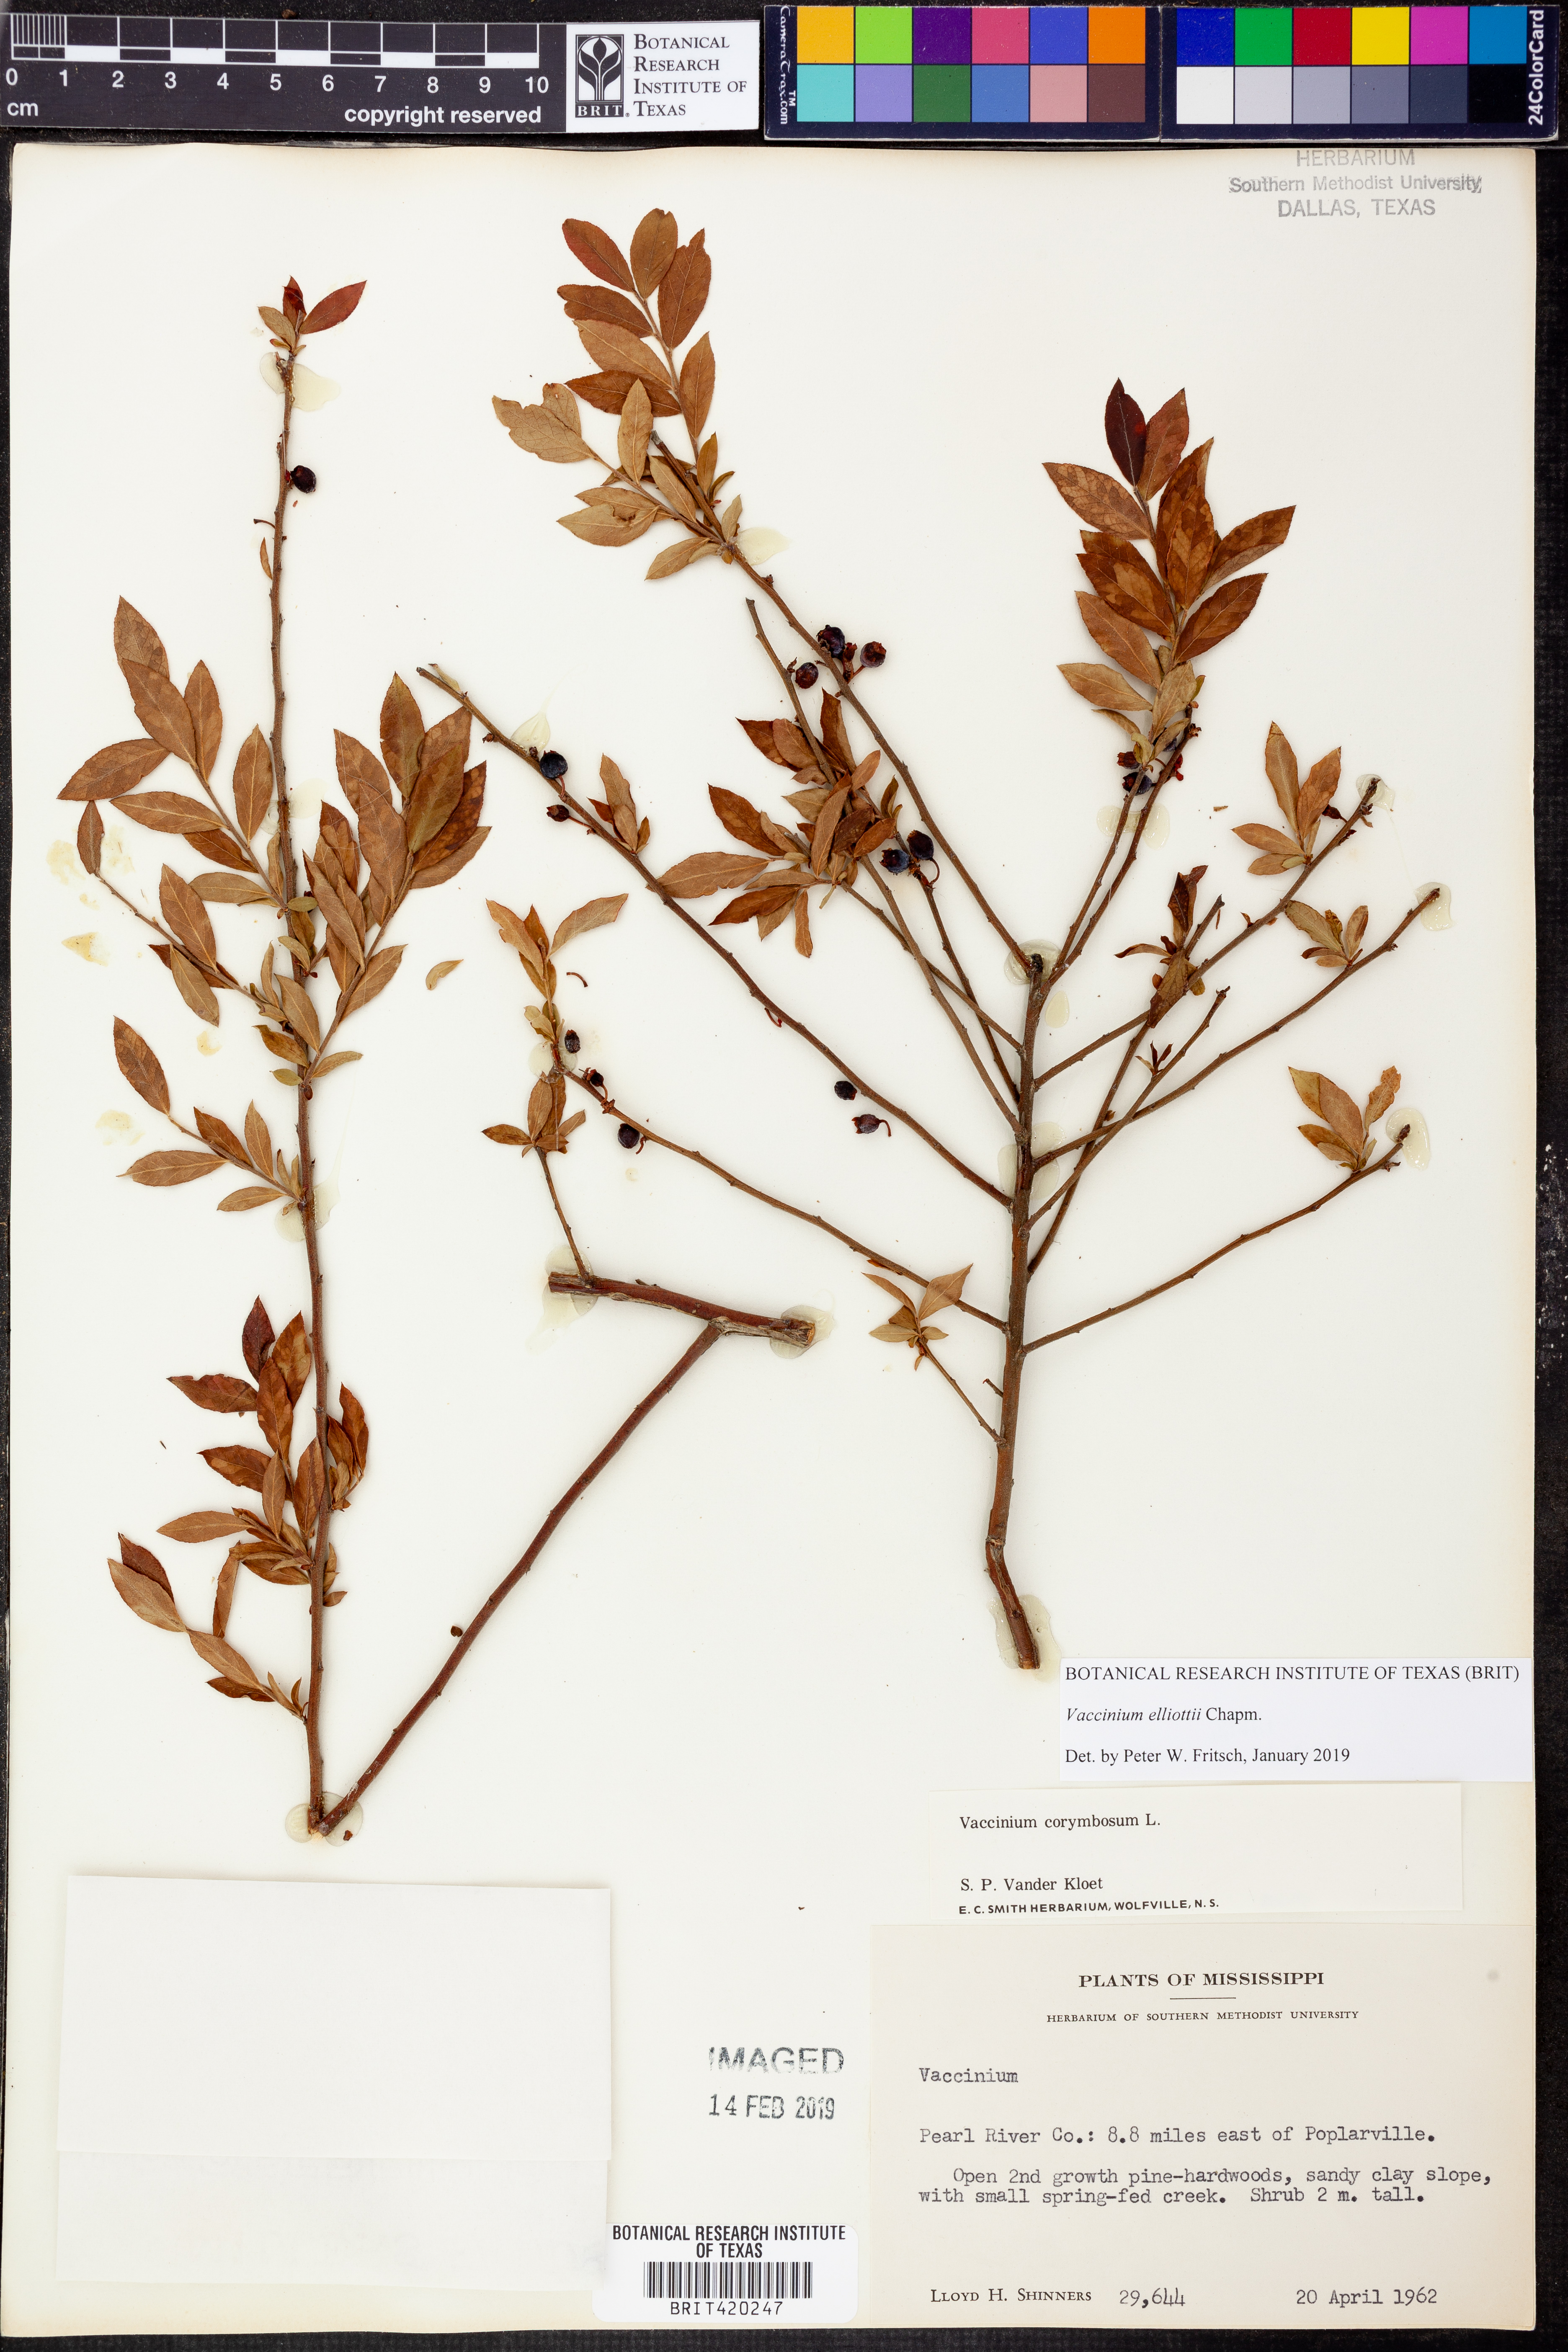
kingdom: Plantae
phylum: Tracheophyta
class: Magnoliopsida
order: Ericales
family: Ericaceae
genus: Vaccinium
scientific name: Vaccinium corymbosum
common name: Blueberry
